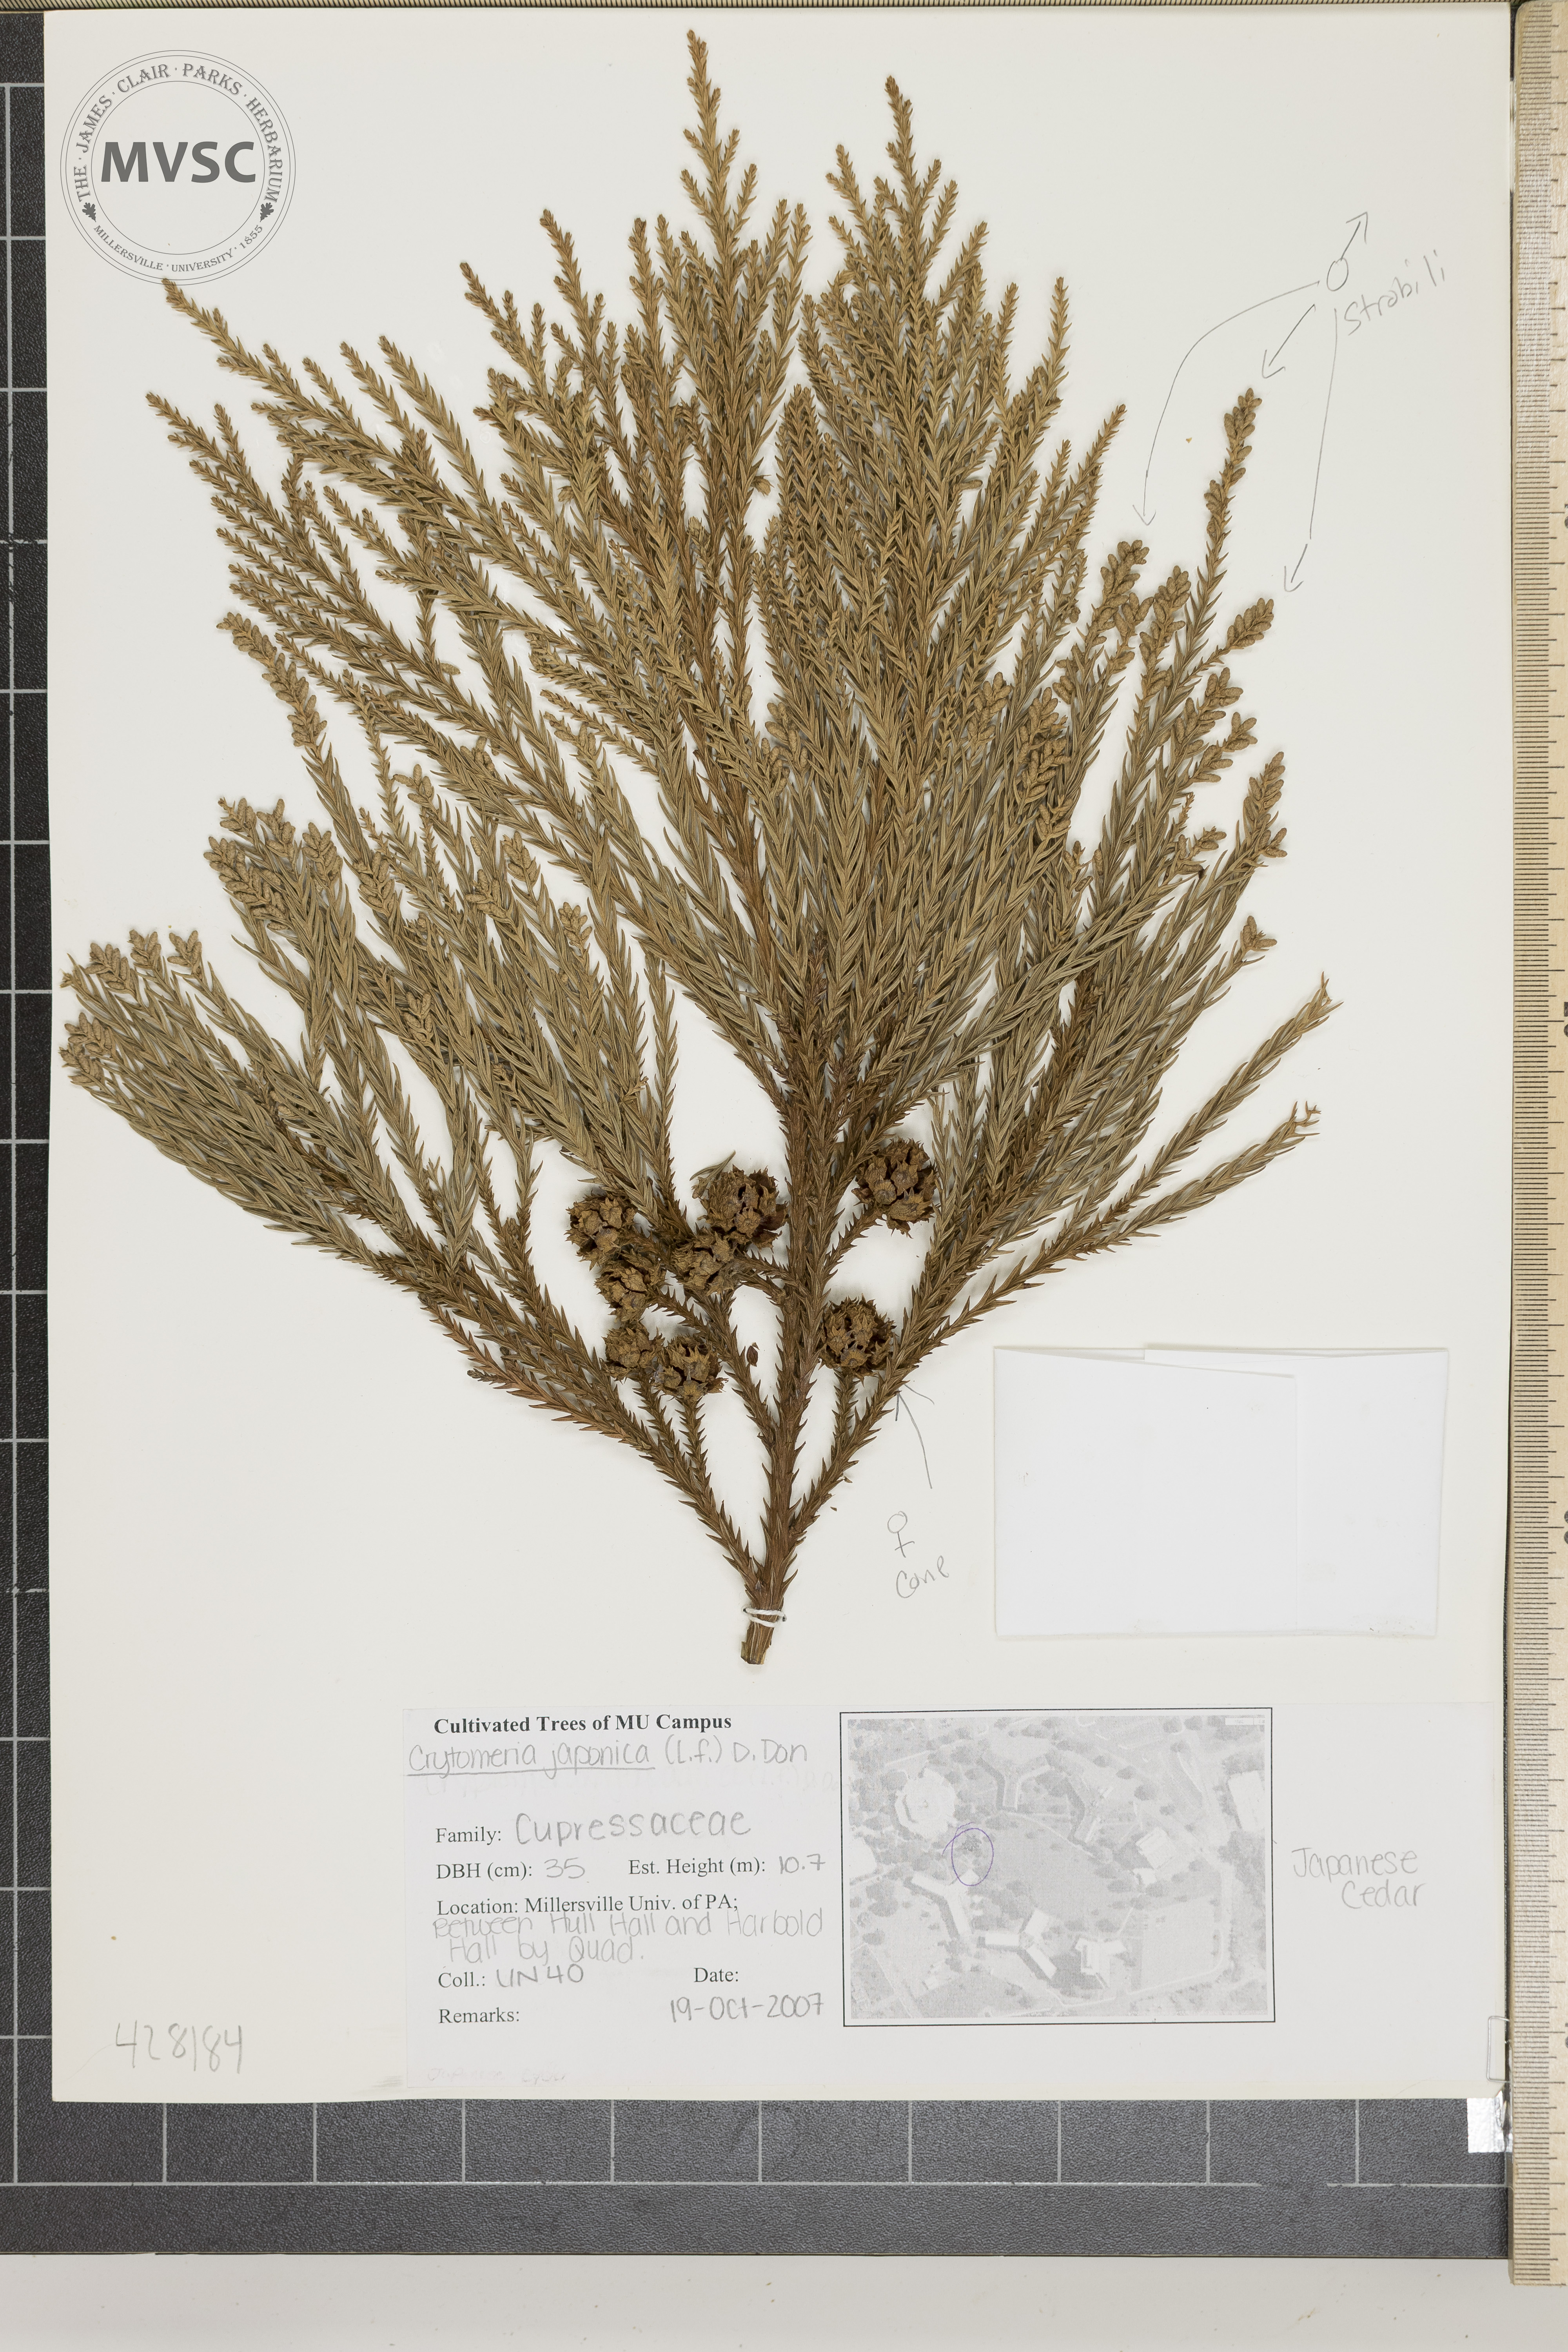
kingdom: Plantae
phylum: Tracheophyta
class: Pinopsida
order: Pinales
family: Cupressaceae
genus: Cryptomeria
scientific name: Cryptomeria japonica
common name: Japanese Cedar
